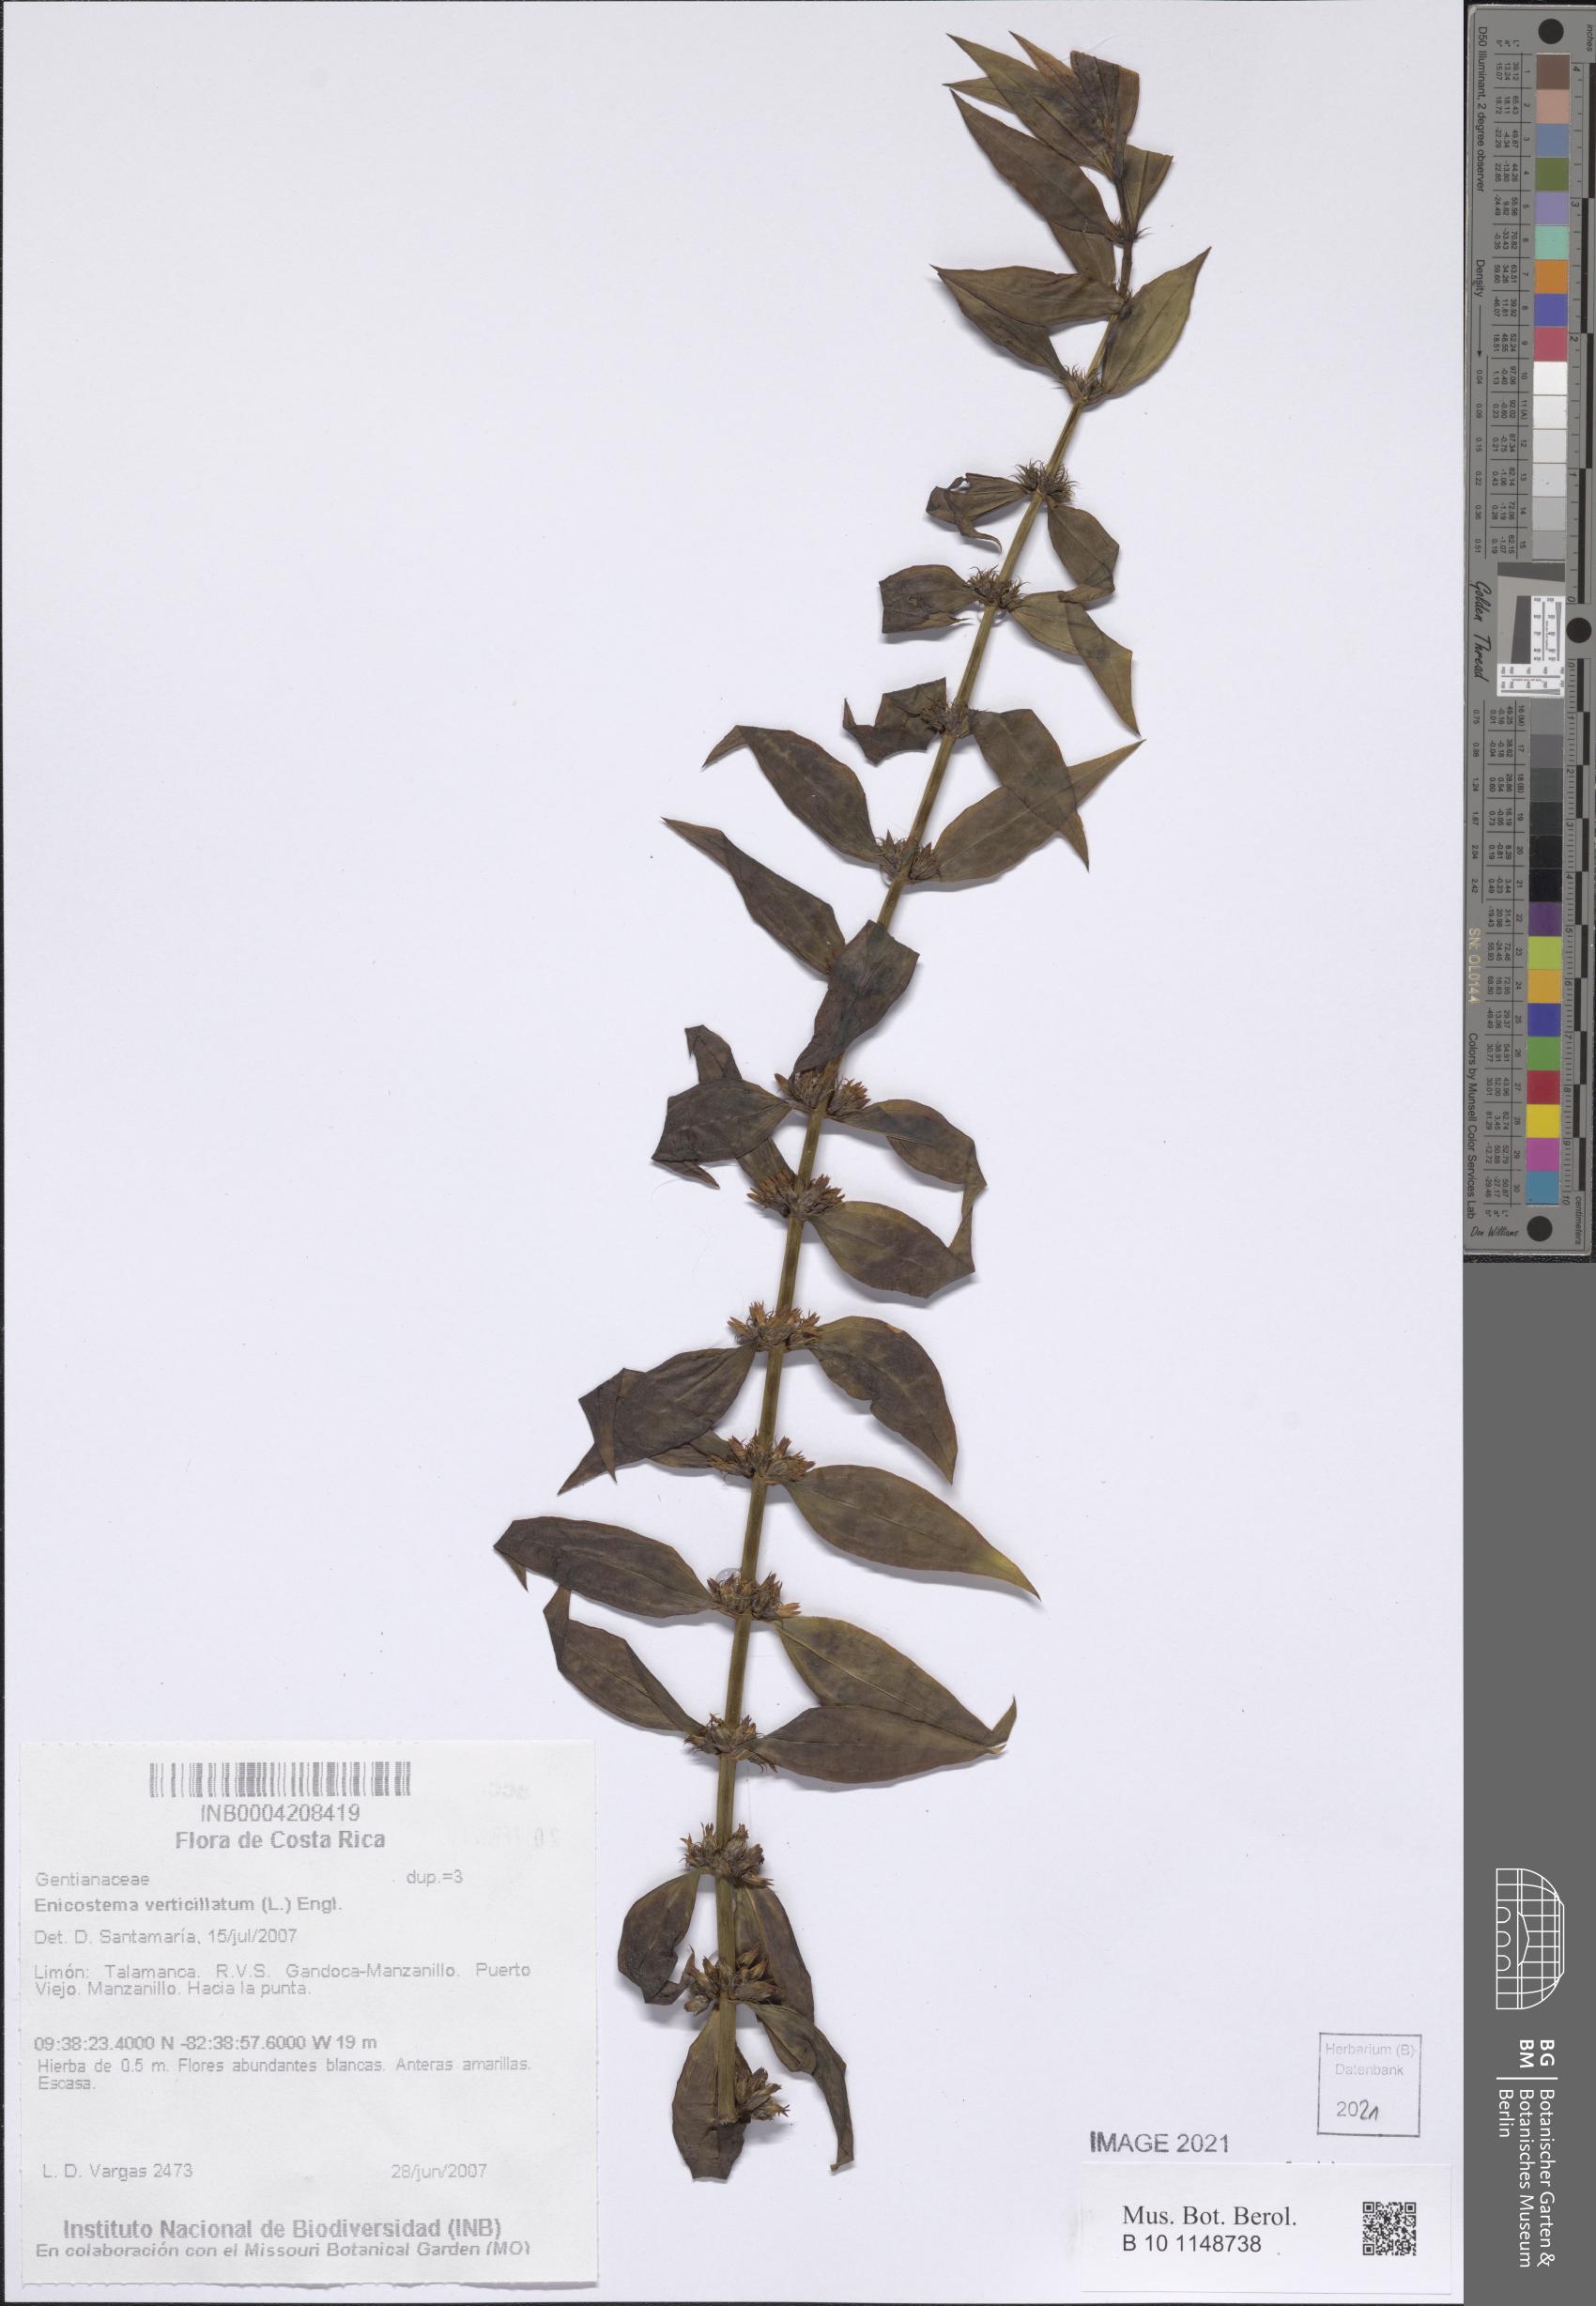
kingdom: Plantae
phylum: Tracheophyta
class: Magnoliopsida
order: Gentianales
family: Gentianaceae
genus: Enicostema
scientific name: Enicostema verticillatum
